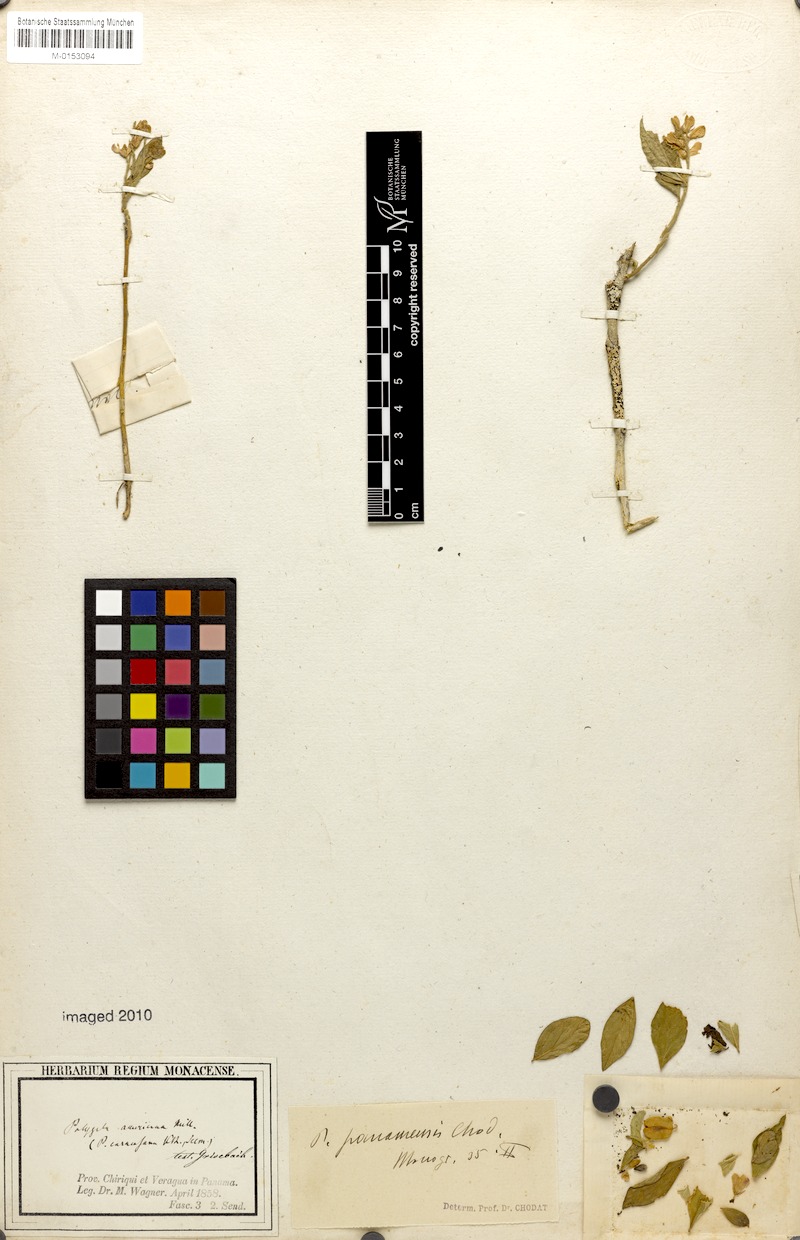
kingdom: Plantae
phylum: Tracheophyta
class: Magnoliopsida
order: Fabales
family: Polygalaceae
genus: Polygala
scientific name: Polygala panamensis
